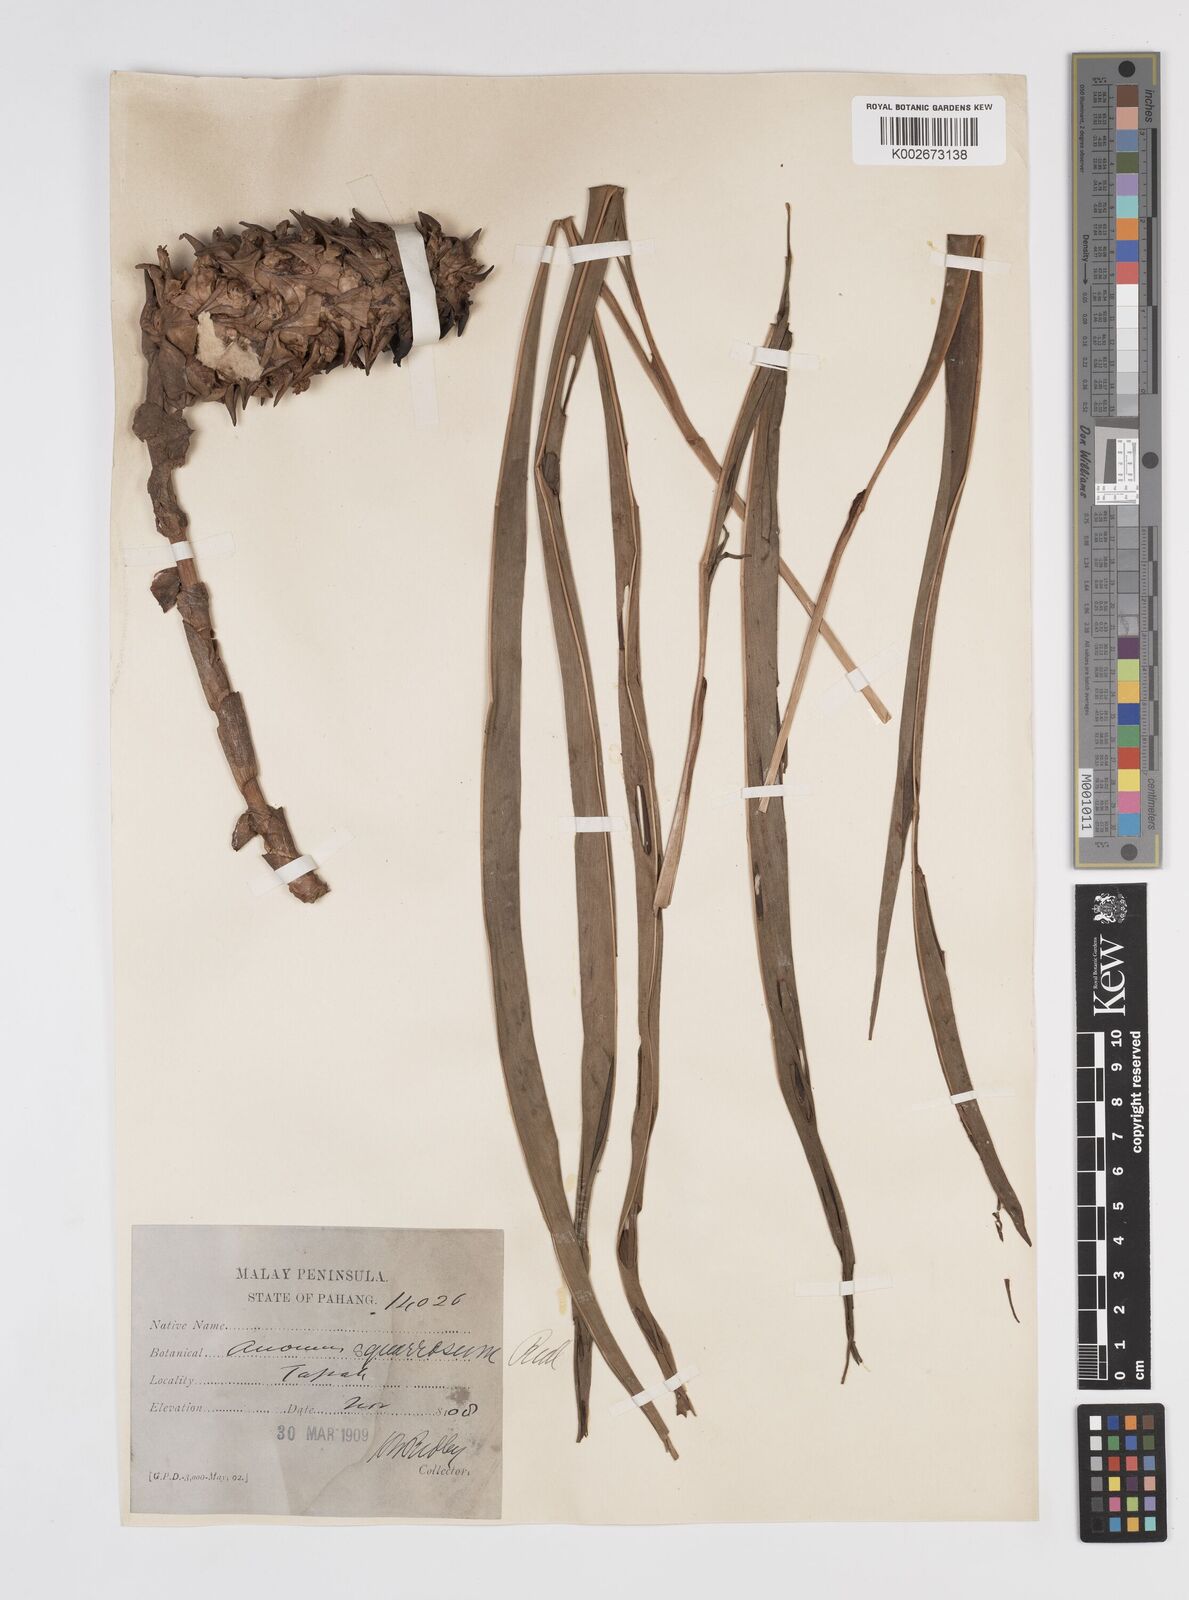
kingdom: Plantae
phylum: Tracheophyta
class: Liliopsida
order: Zingiberales
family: Zingiberaceae
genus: Conamomum
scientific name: Conamomum squarrosum
